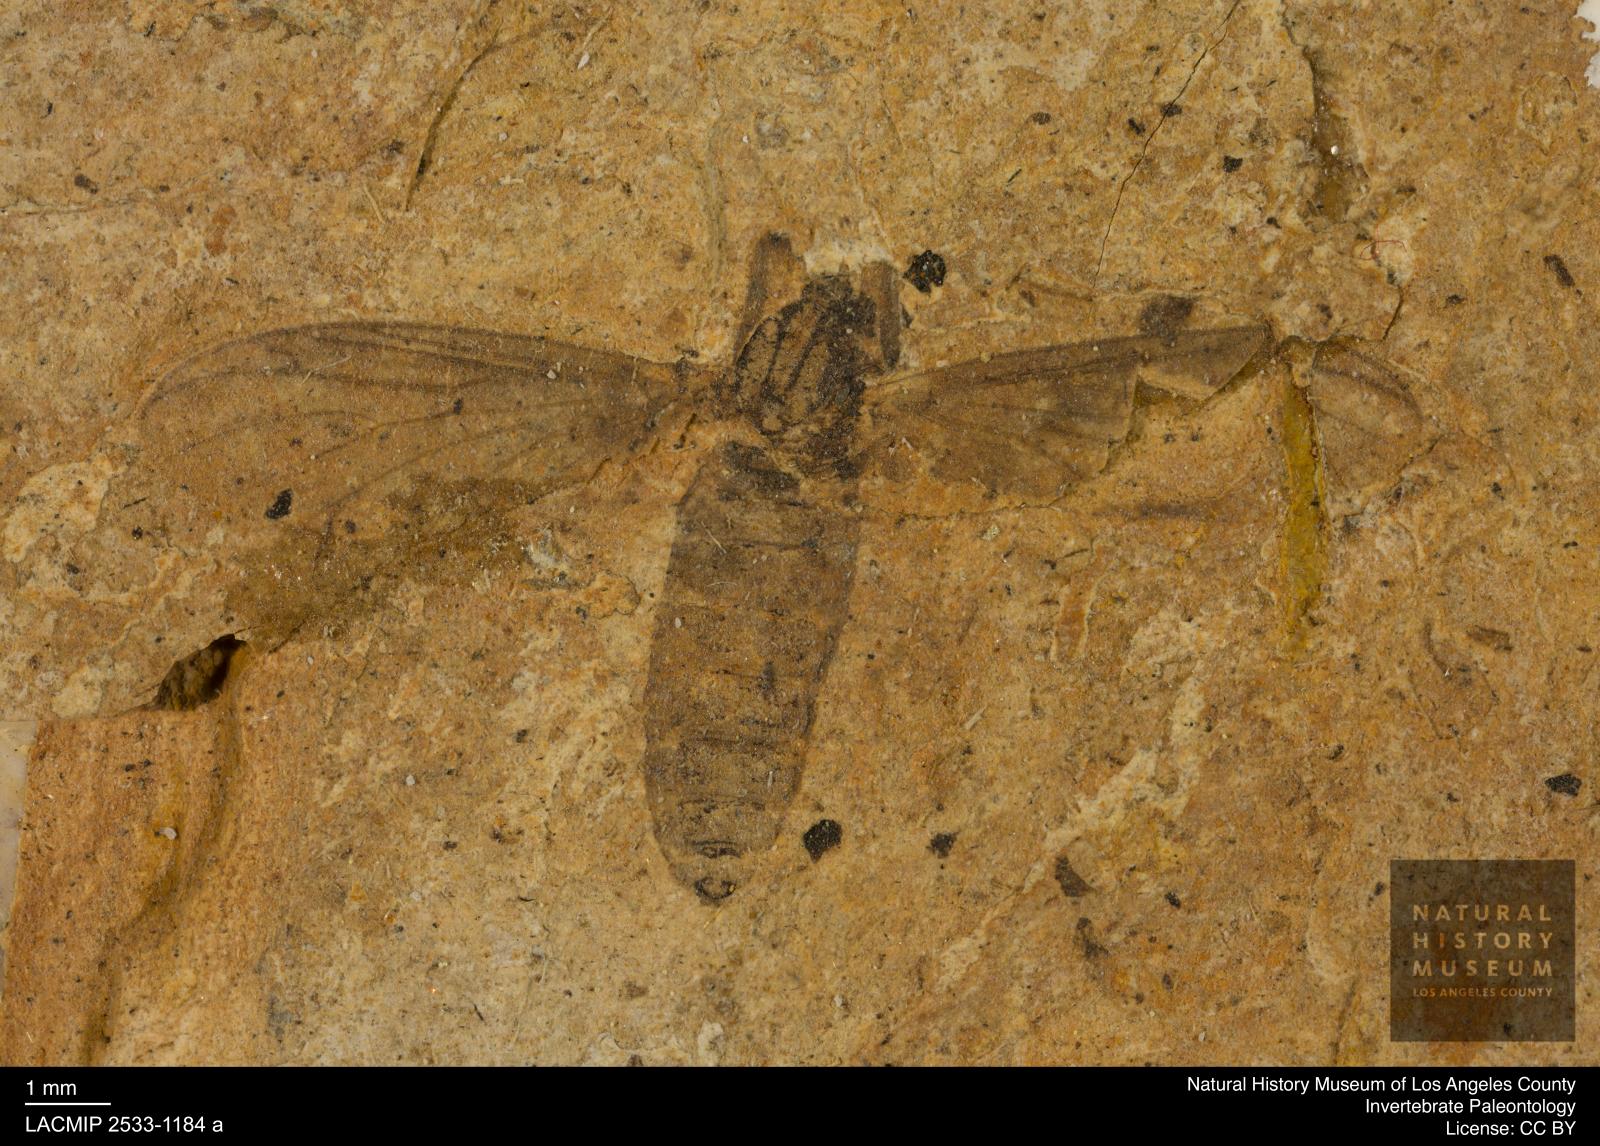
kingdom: Animalia
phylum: Arthropoda
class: Insecta
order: Diptera
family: Bibionidae
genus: Plecia
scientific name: Plecia pinguis
